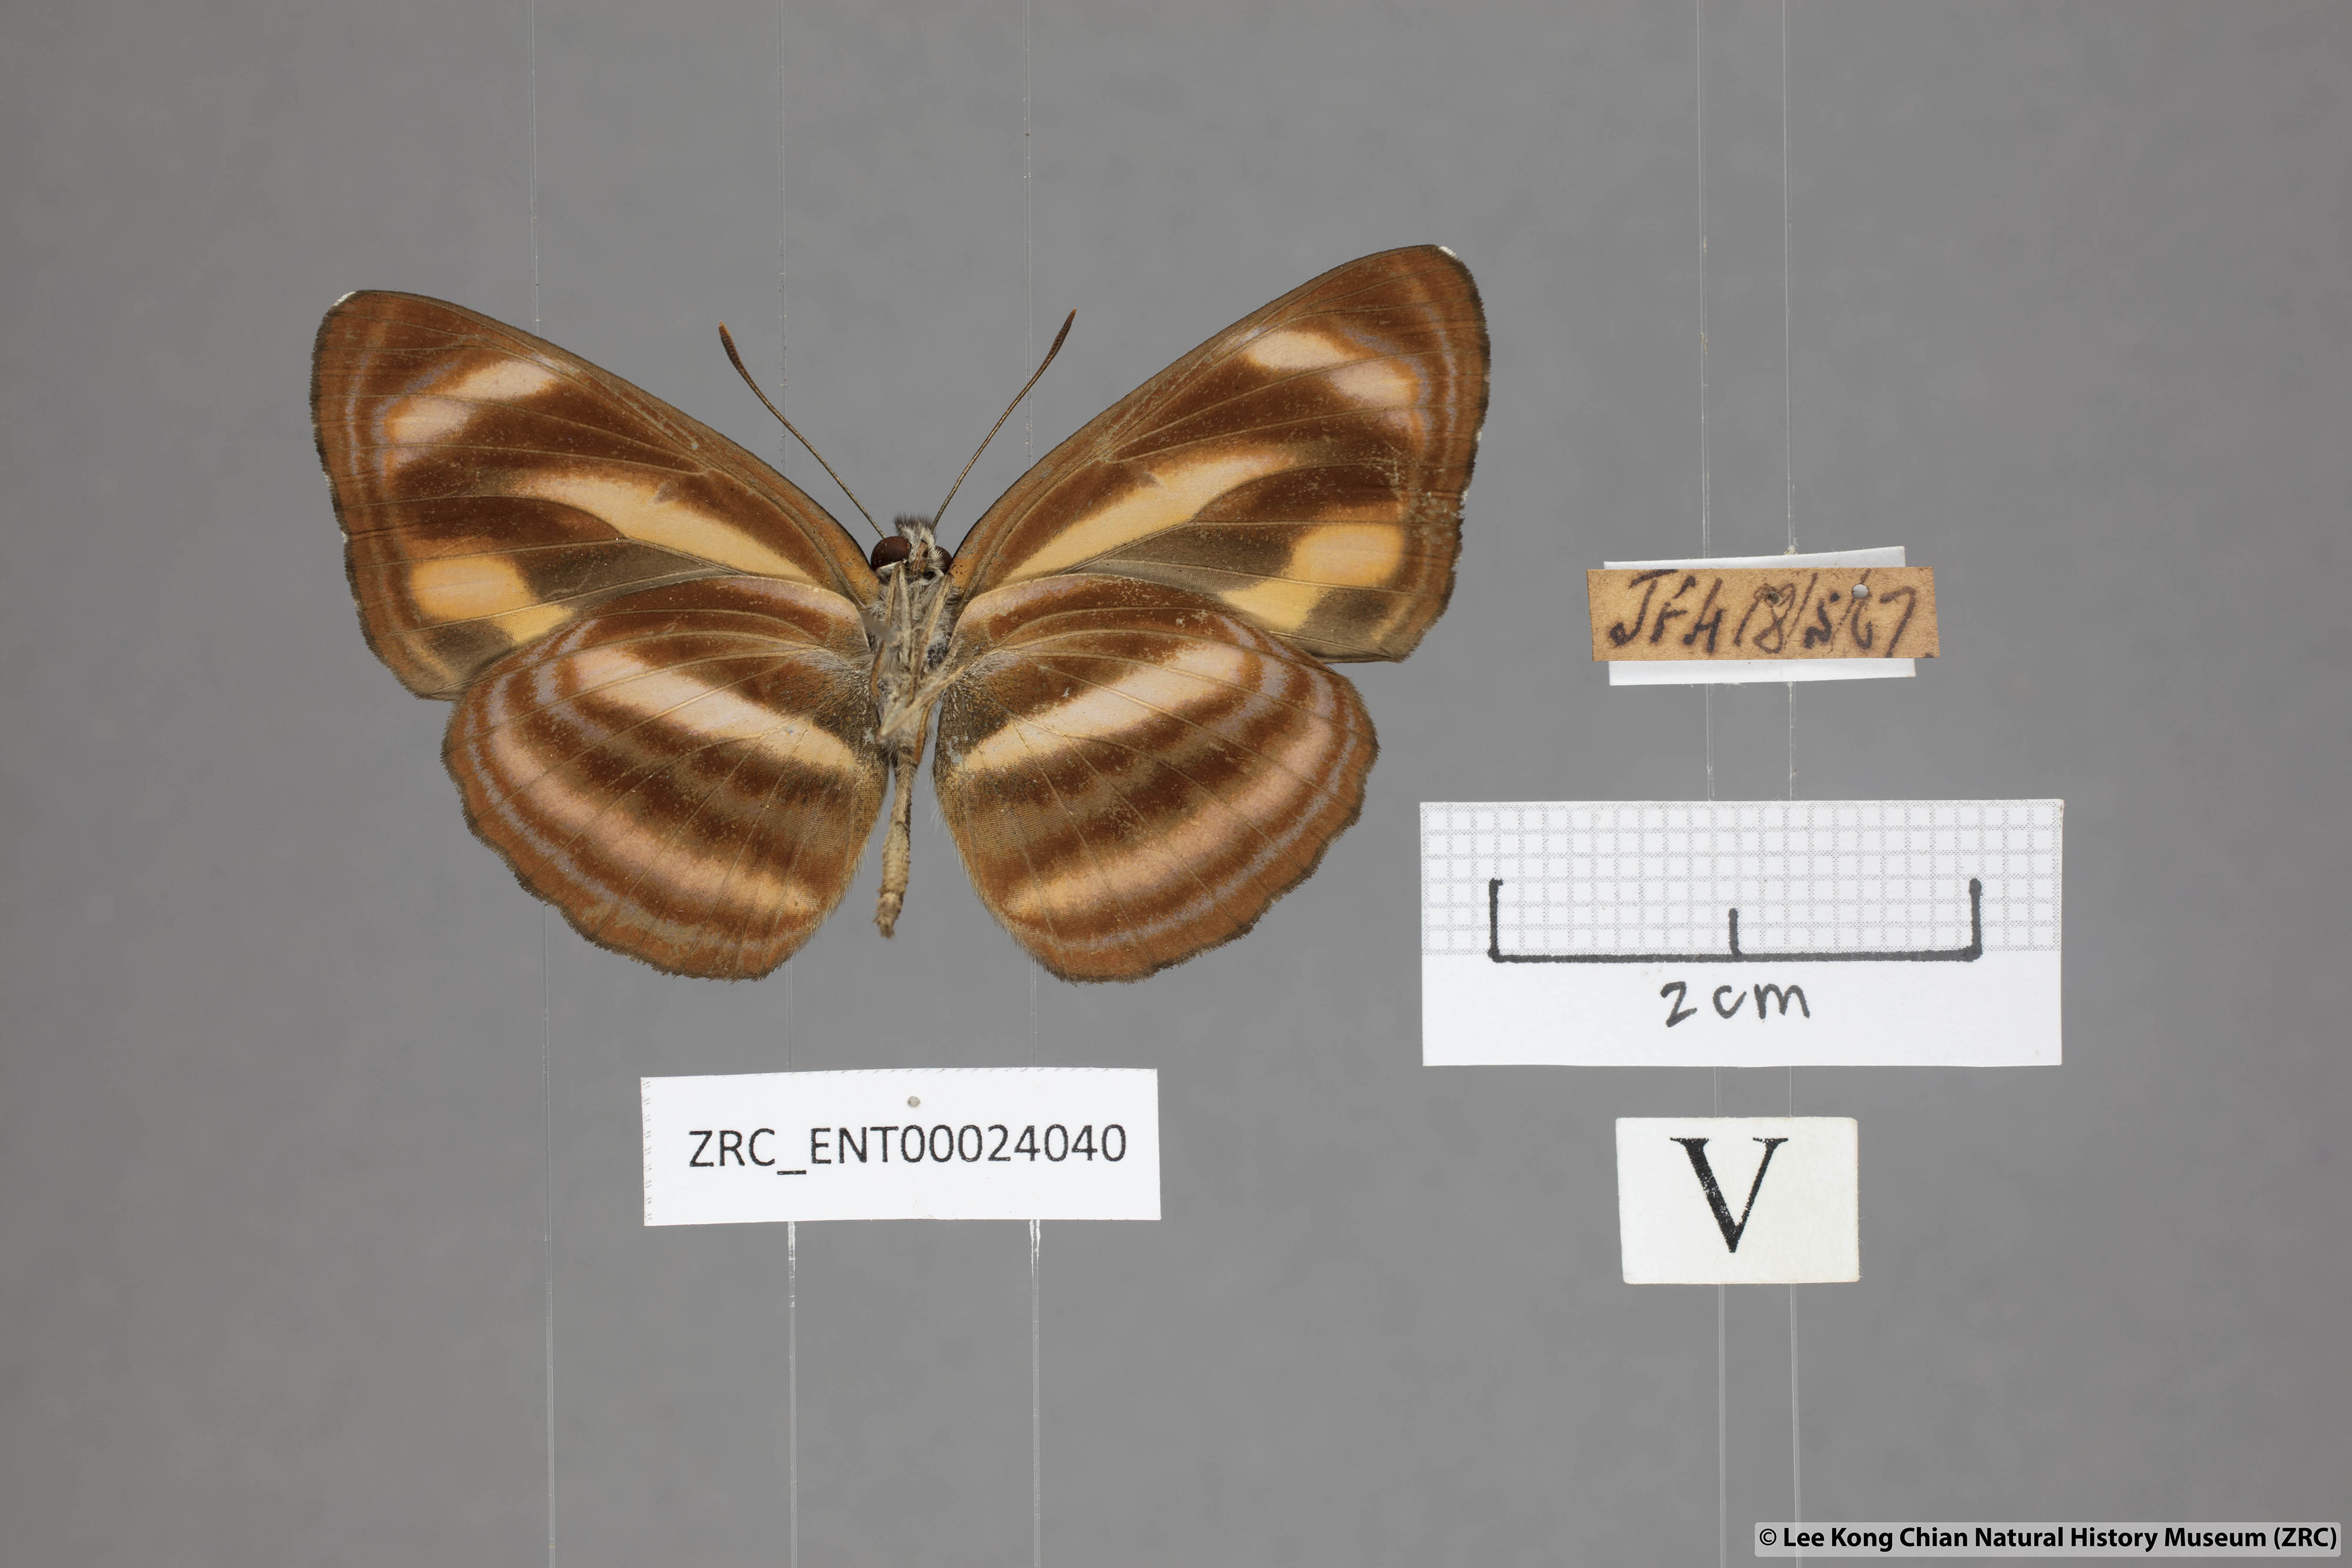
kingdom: Animalia
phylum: Arthropoda
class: Insecta
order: Lepidoptera
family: Nymphalidae
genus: Neptis
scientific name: Neptis miah
